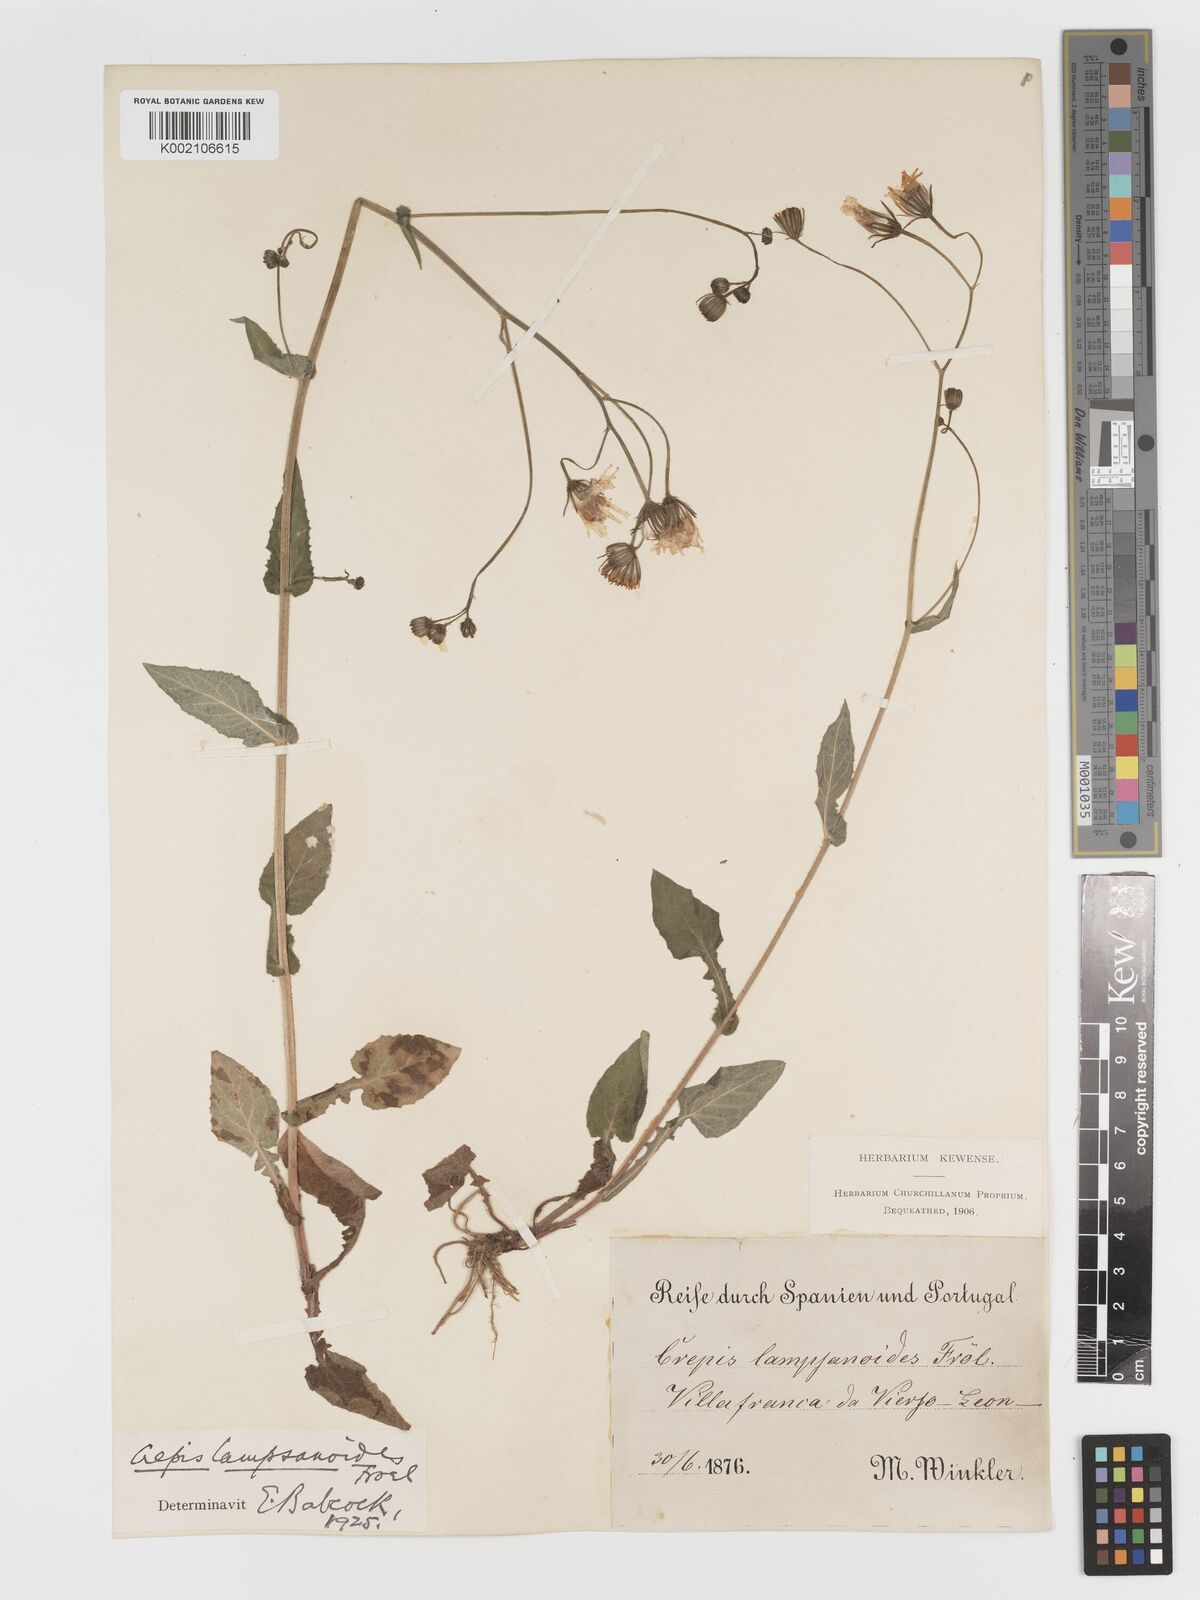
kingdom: Plantae
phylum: Tracheophyta
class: Magnoliopsida
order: Asterales
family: Asteraceae
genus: Crepis
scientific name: Crepis lampsanoides
